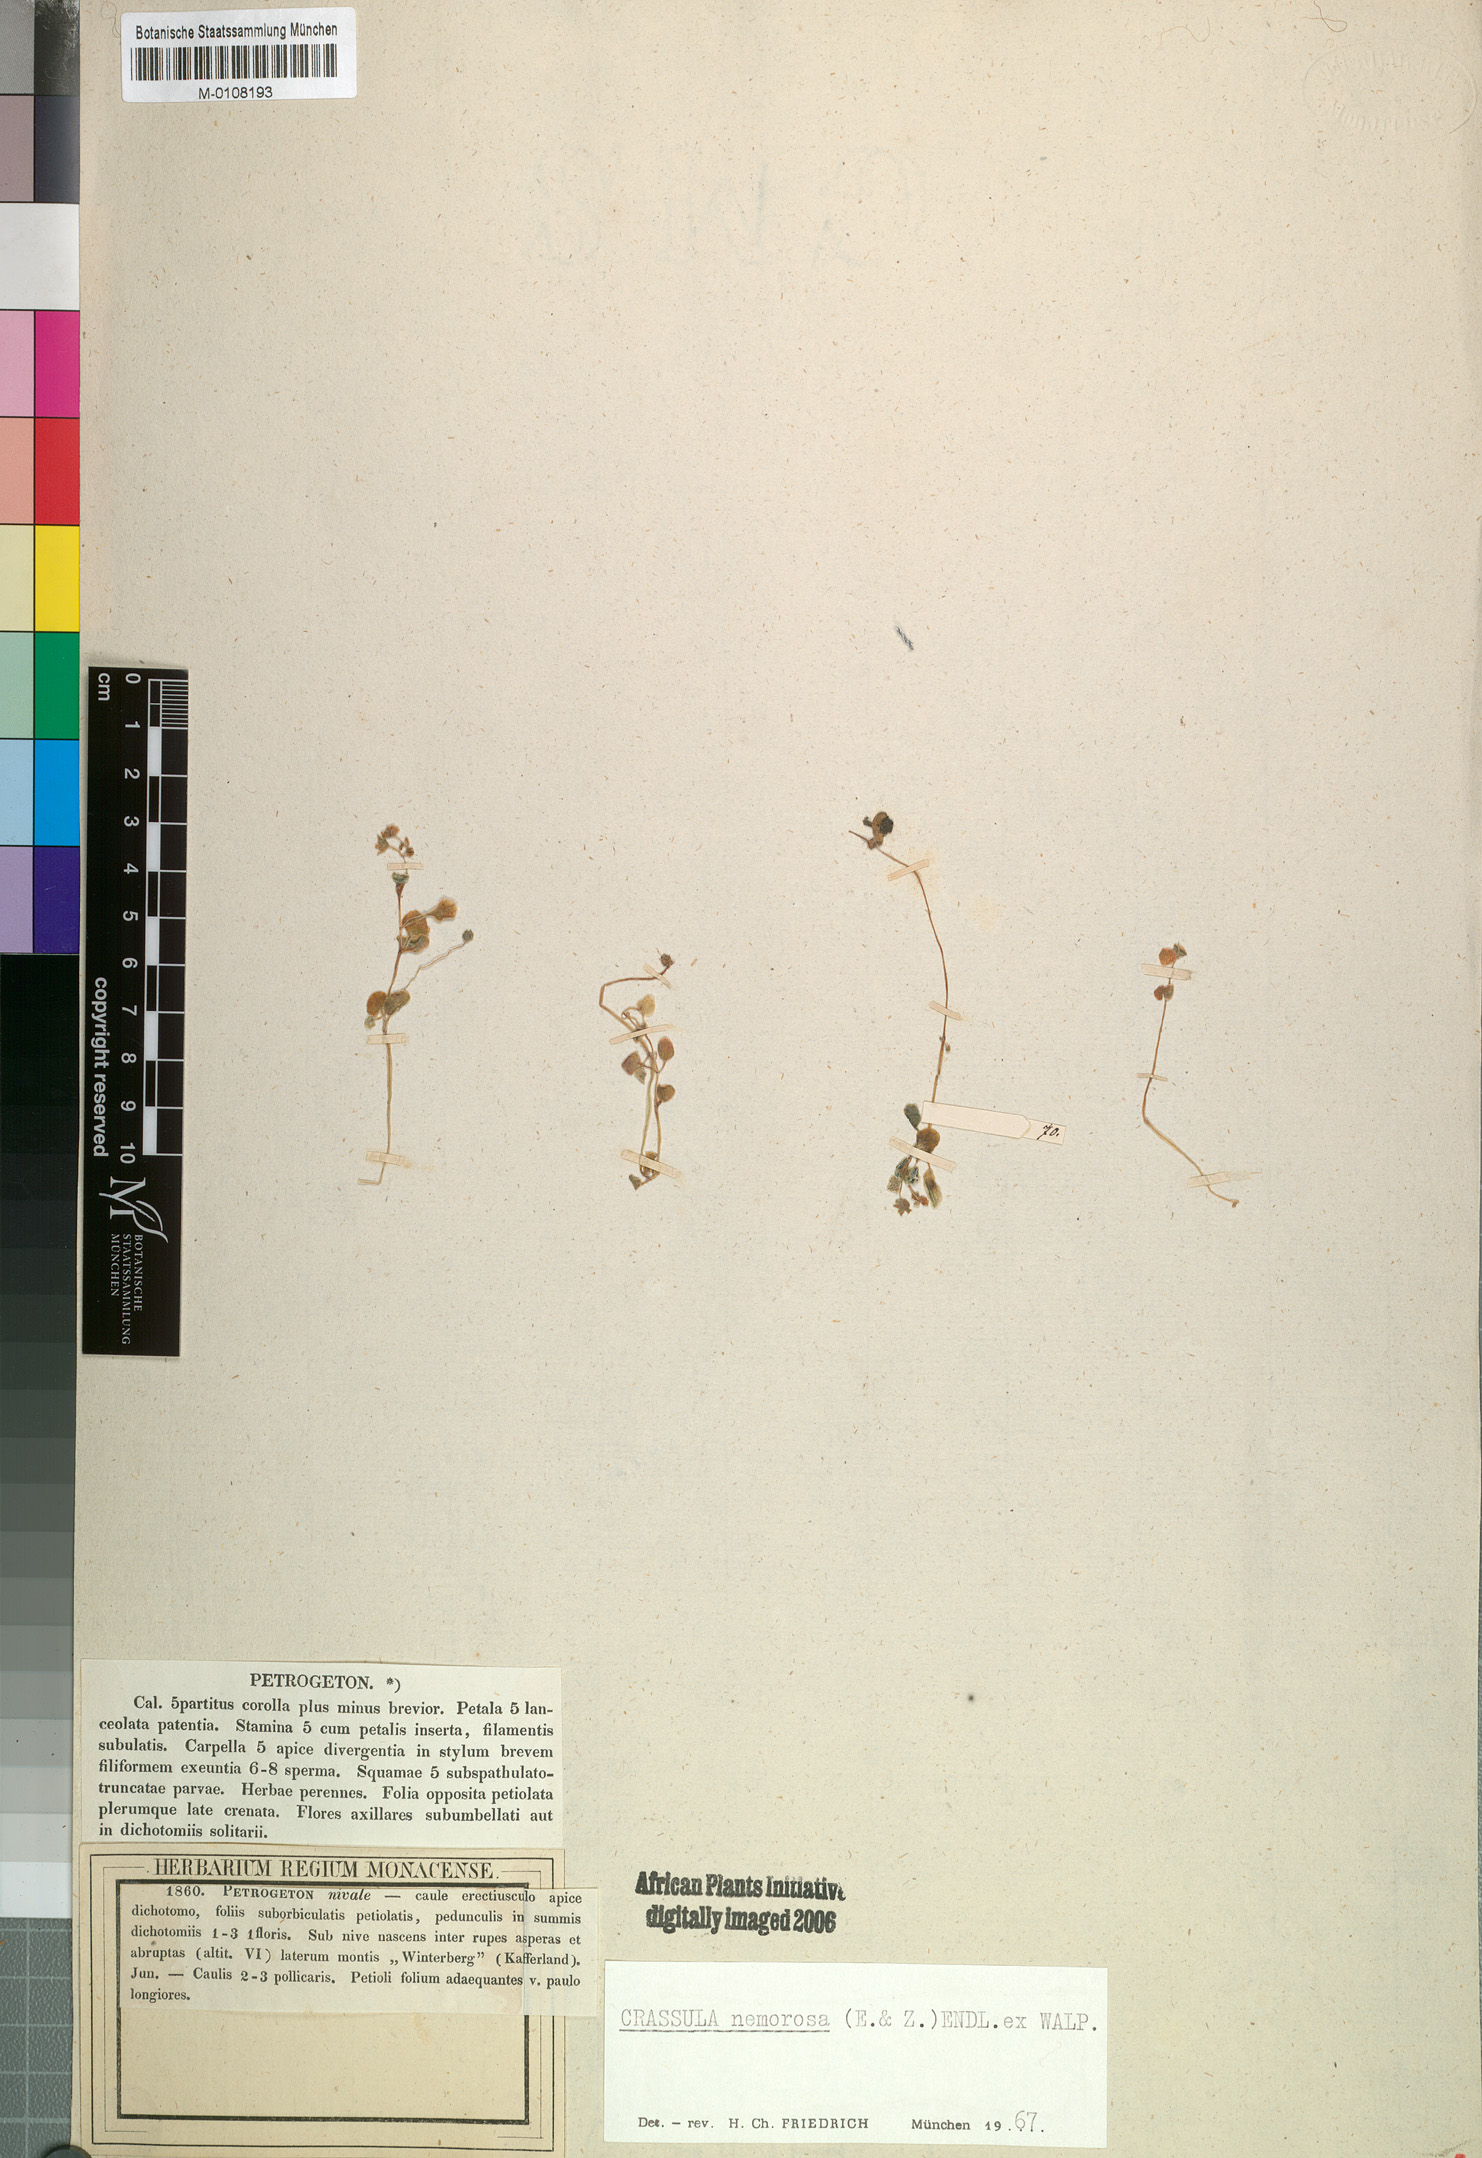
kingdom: Plantae
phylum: Tracheophyta
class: Magnoliopsida
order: Saxifragales
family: Crassulaceae
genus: Crassula
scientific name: Crassula nemorosa
